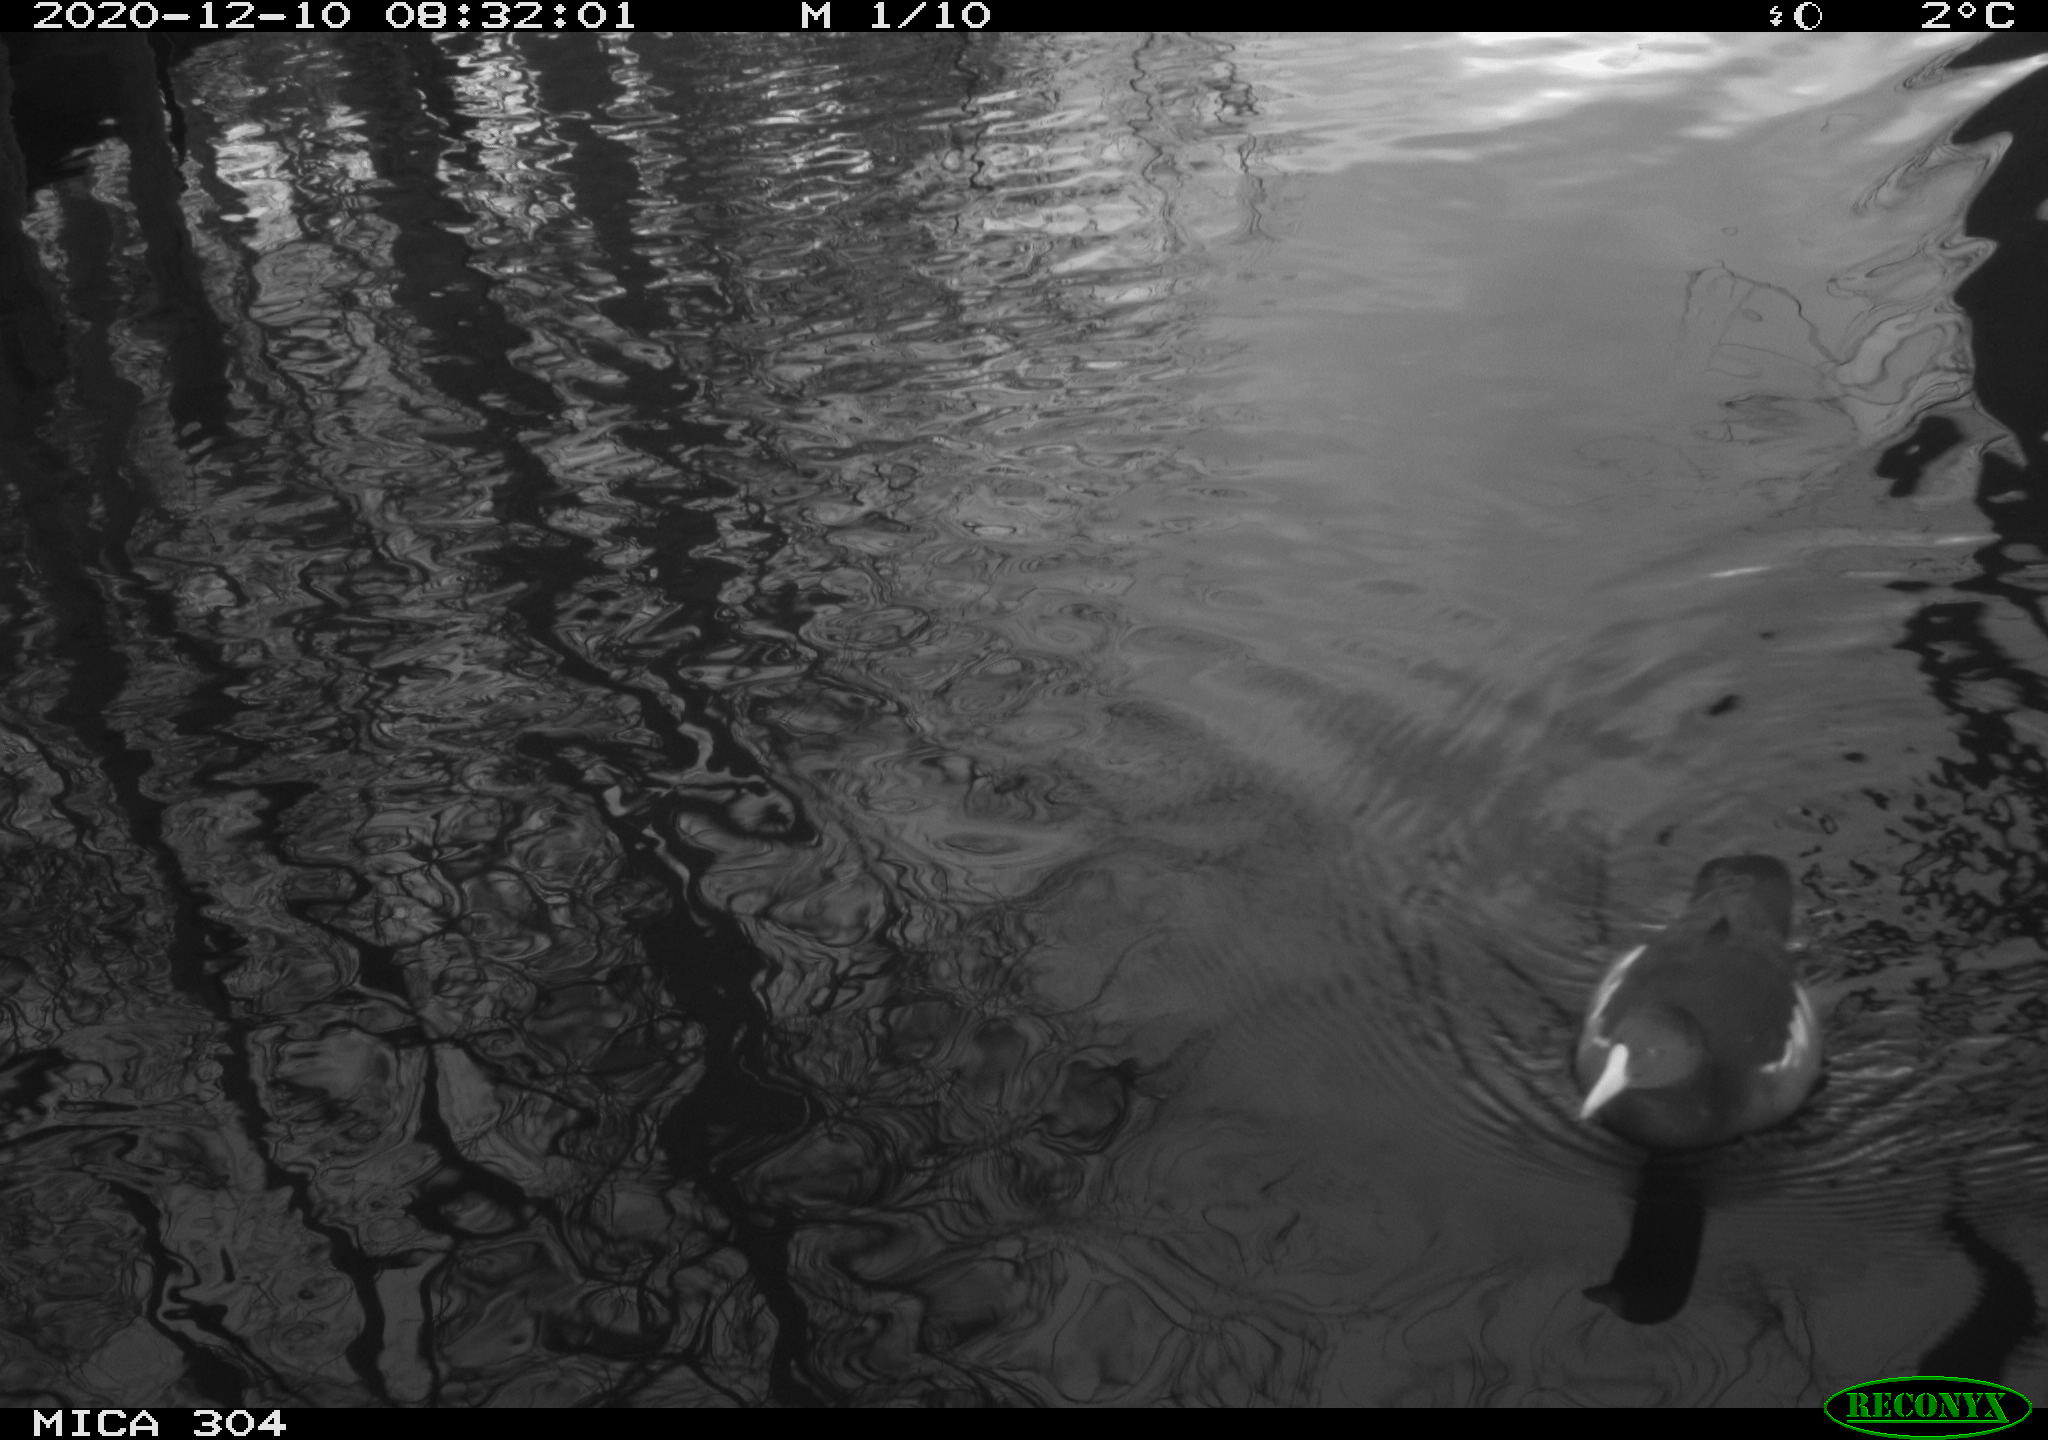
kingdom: Animalia
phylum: Chordata
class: Aves
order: Gruiformes
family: Rallidae
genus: Gallinula
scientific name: Gallinula chloropus
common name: Common moorhen
